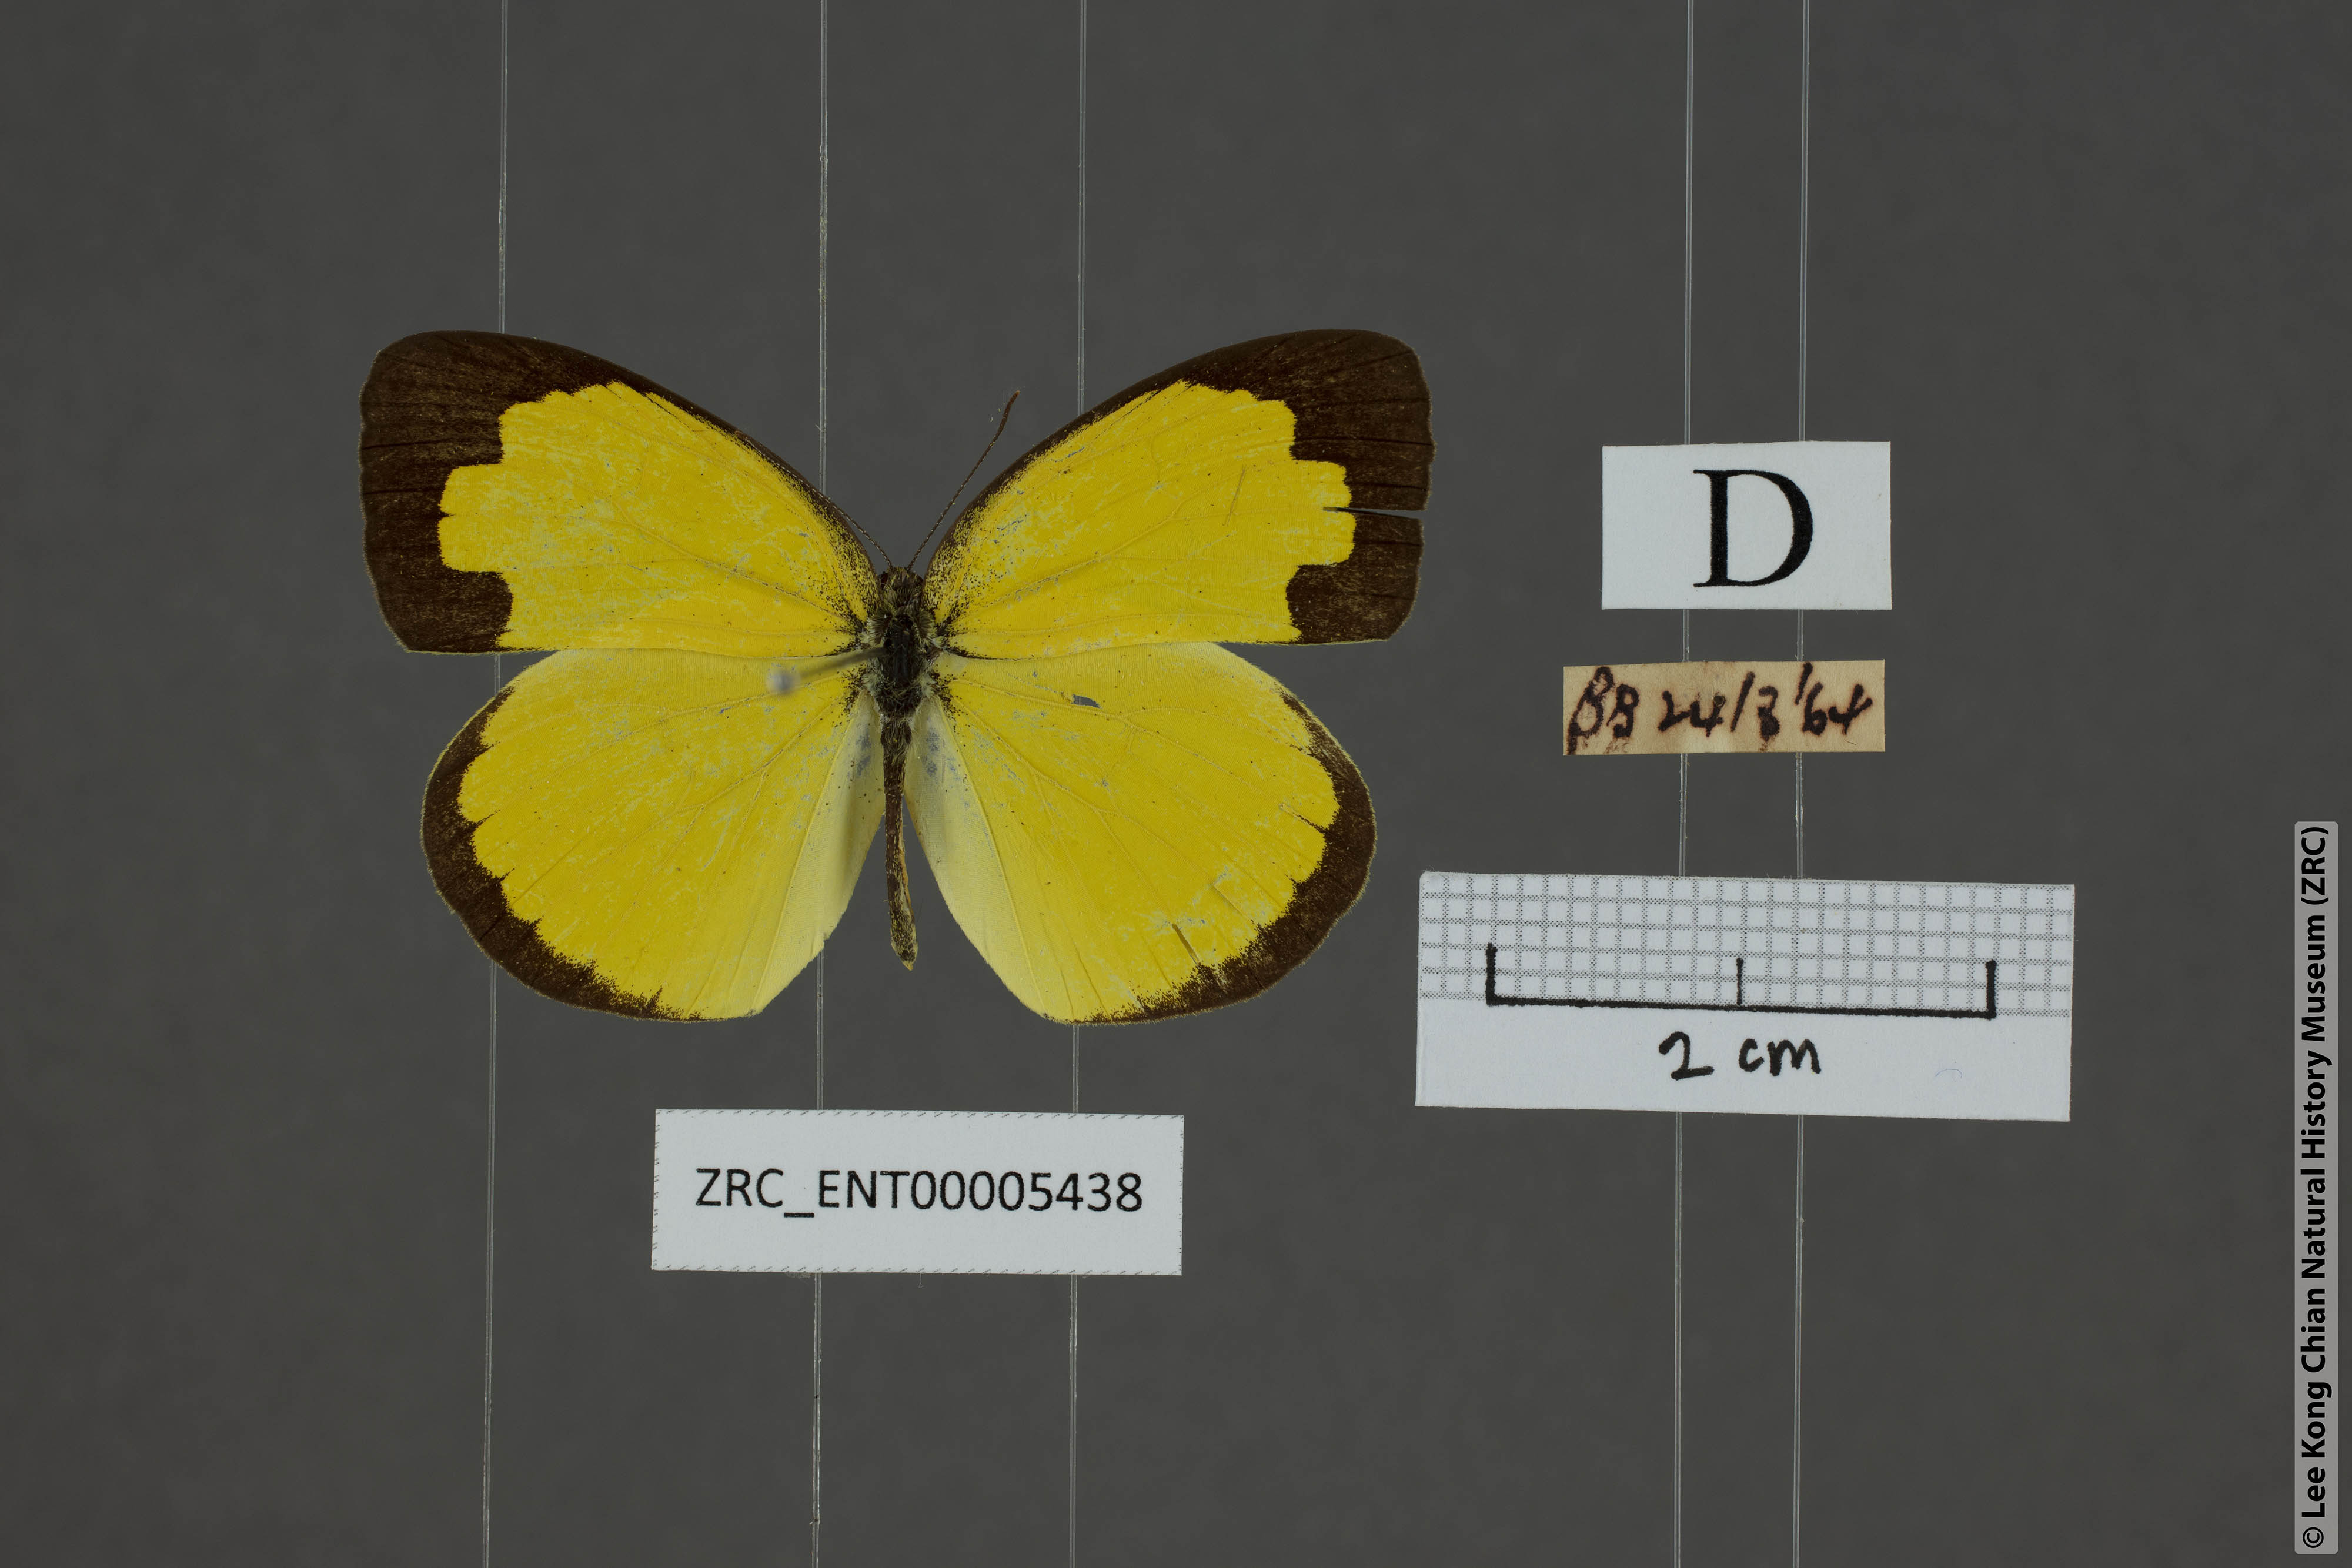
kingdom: Animalia
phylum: Arthropoda
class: Insecta
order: Lepidoptera
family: Pieridae
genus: Eurema
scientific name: Eurema hecabe
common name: Pale grass yellow
